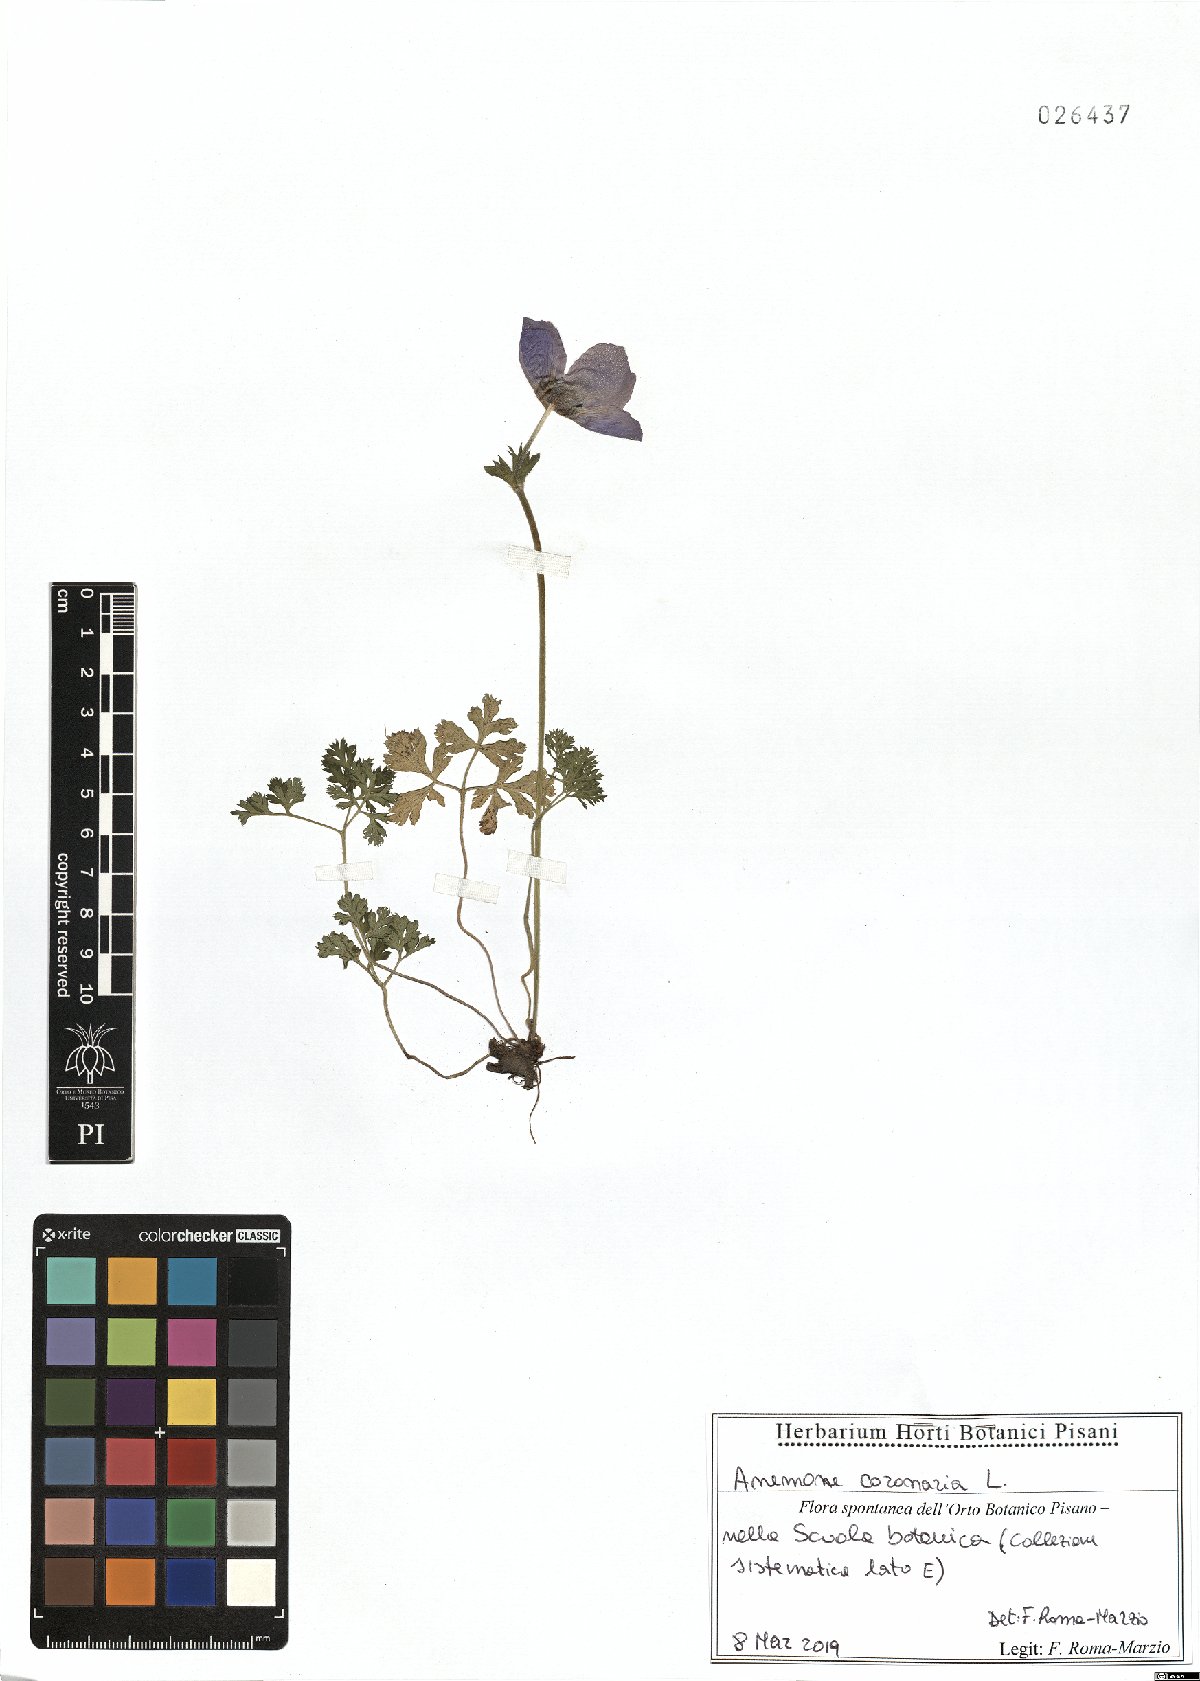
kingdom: Plantae
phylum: Tracheophyta
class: Magnoliopsida
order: Ranunculales
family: Ranunculaceae
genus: Anemone
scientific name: Anemone coronaria
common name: Poppy anemone
